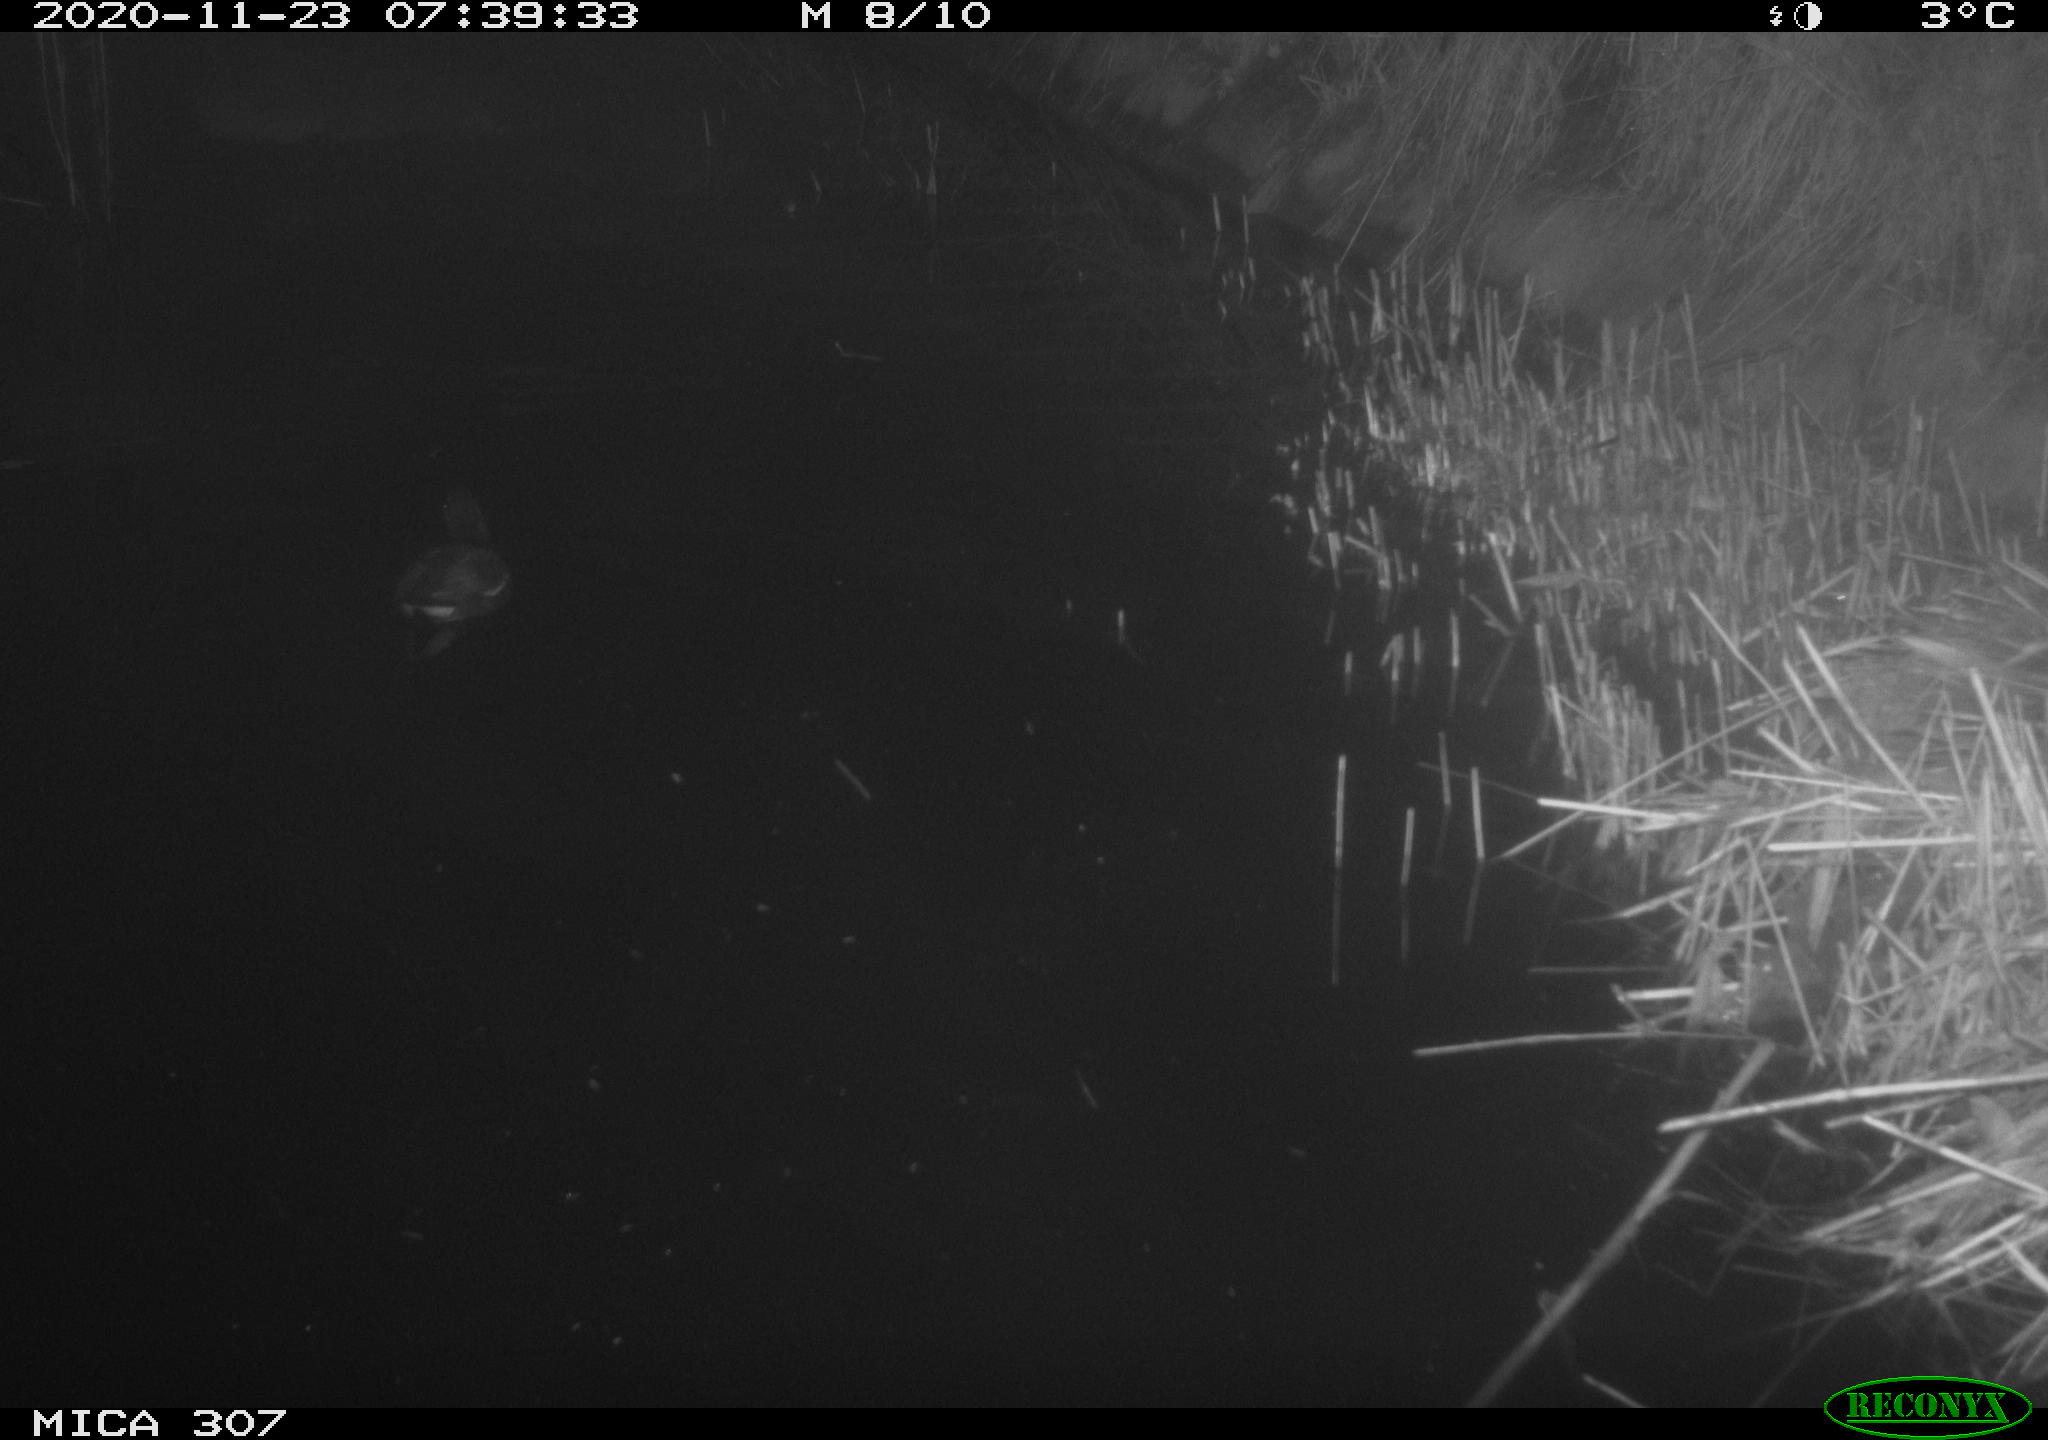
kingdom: Animalia
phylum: Chordata
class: Aves
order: Gruiformes
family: Rallidae
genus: Gallinula
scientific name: Gallinula chloropus
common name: Common moorhen
